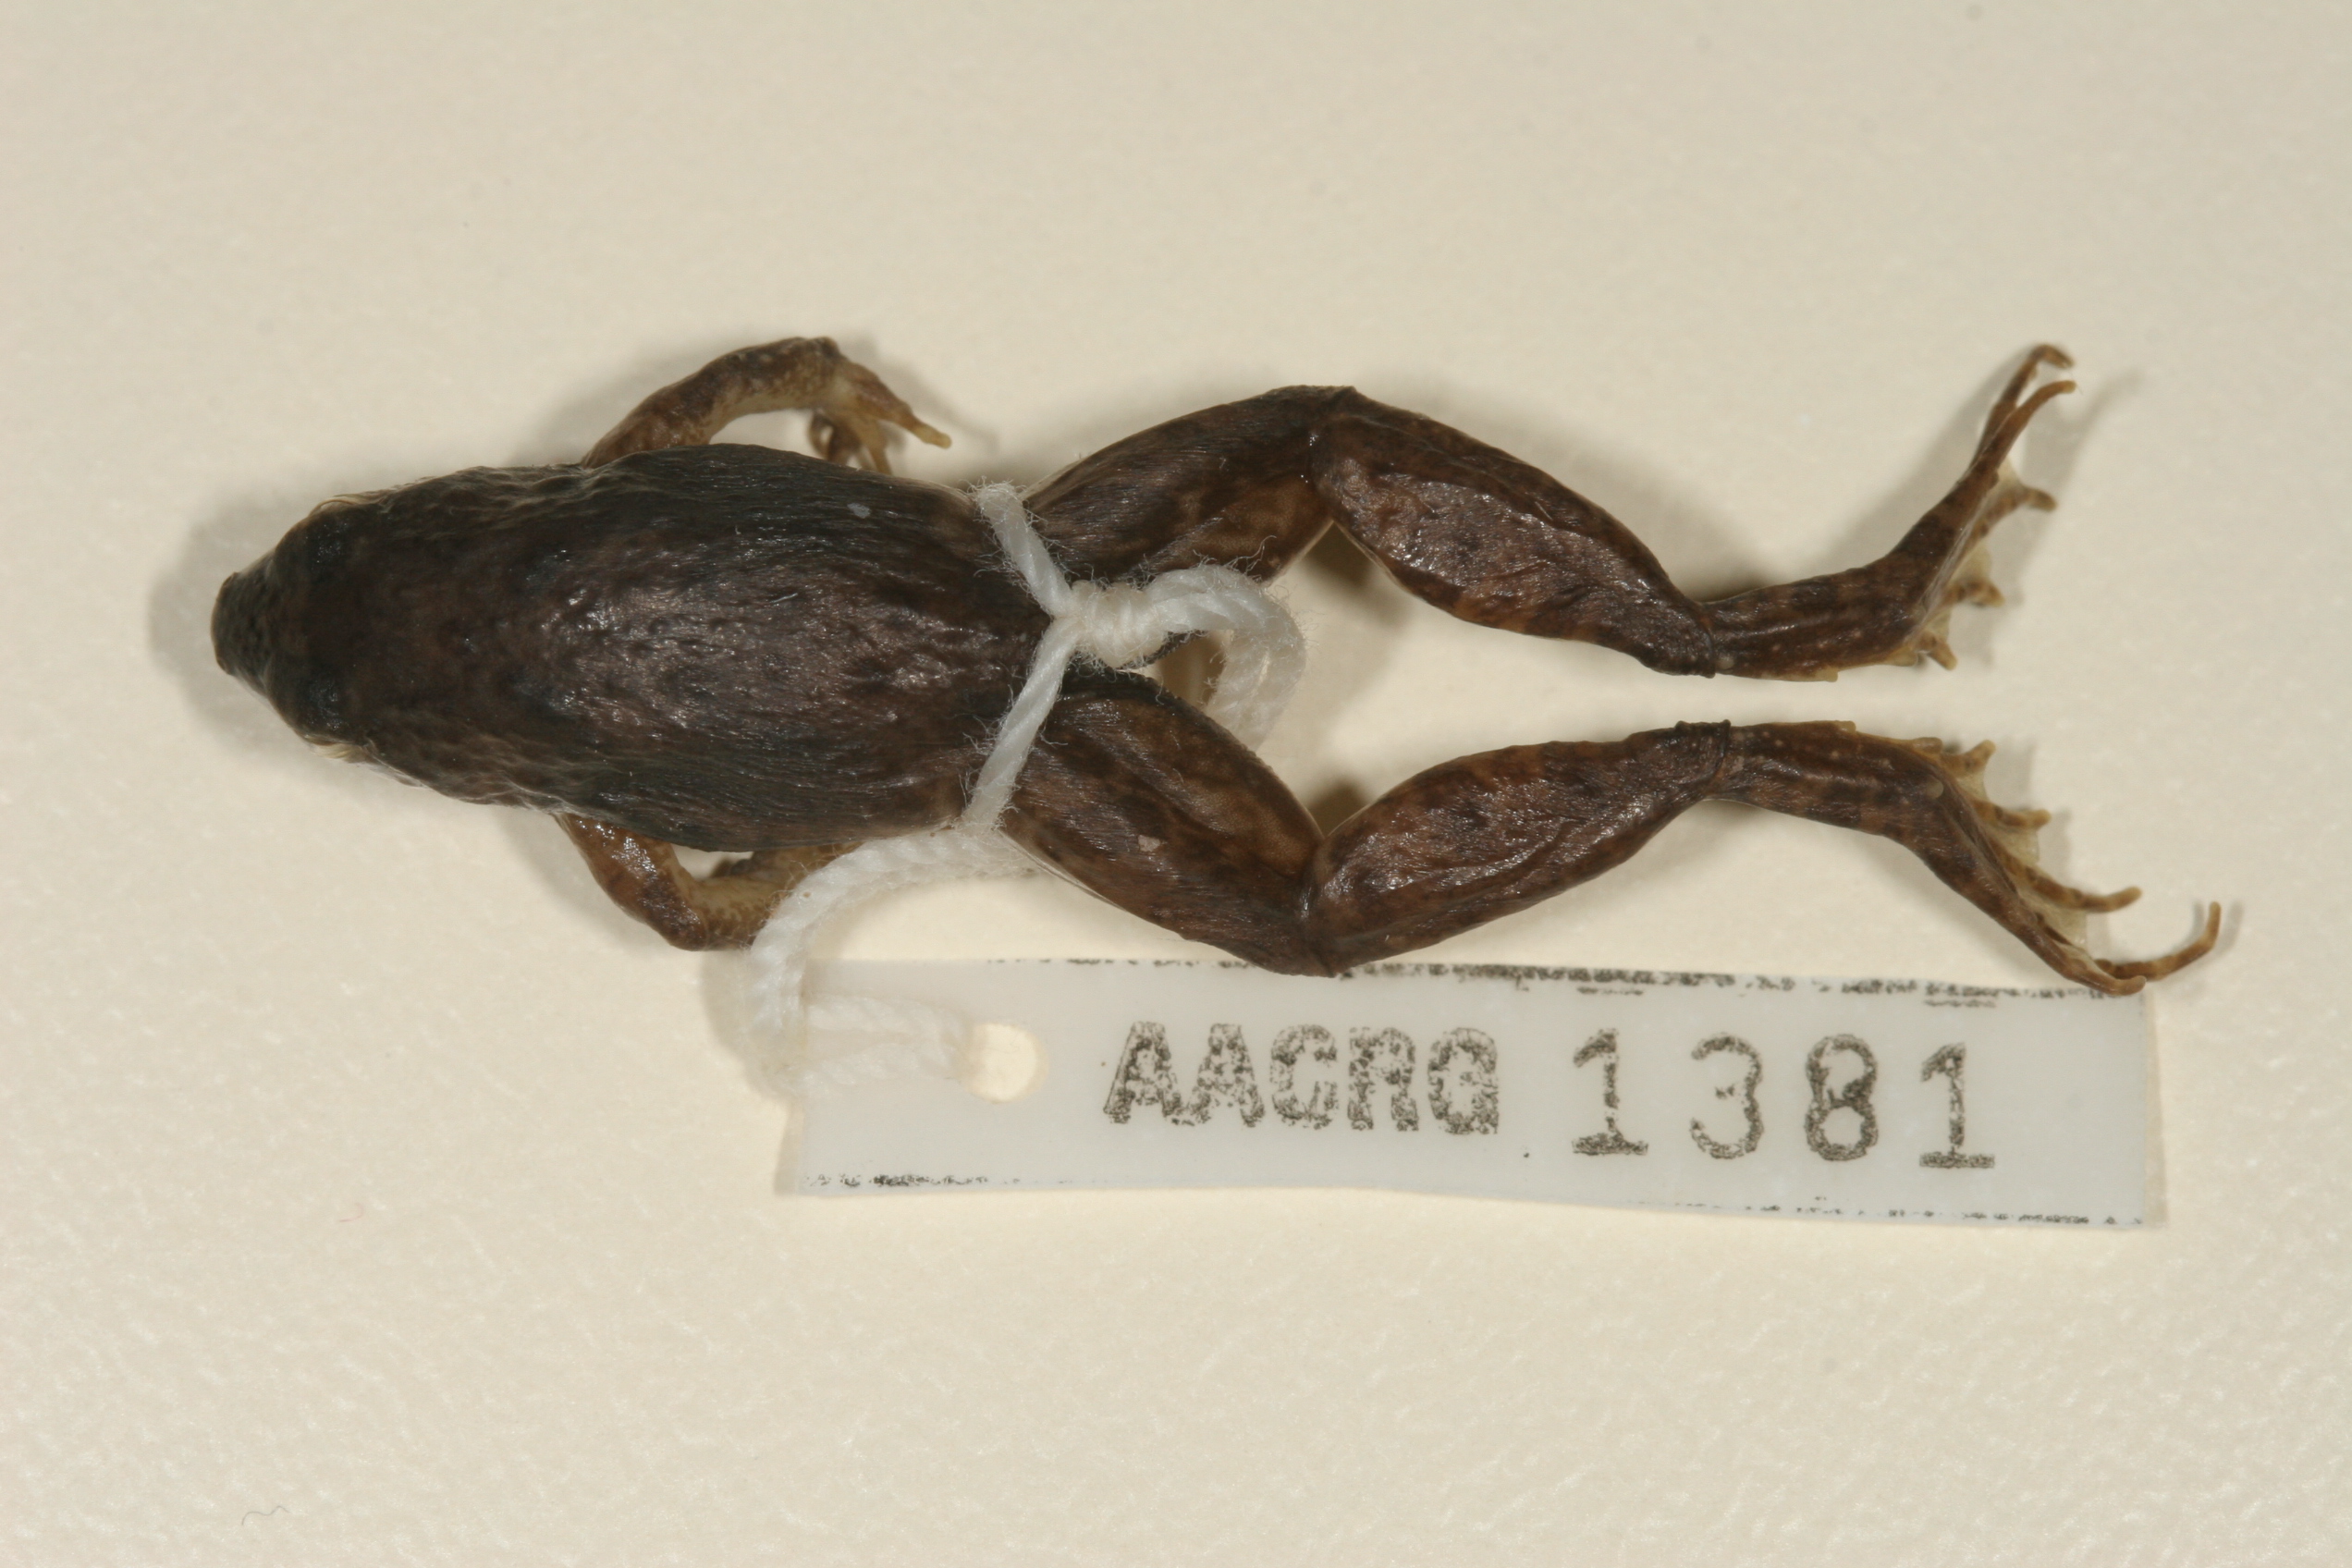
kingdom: Animalia
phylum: Chordata
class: Amphibia
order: Anura
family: Phrynobatrachidae
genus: Phrynobatrachus
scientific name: Phrynobatrachus natalensis
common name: Snoring puddle frog
